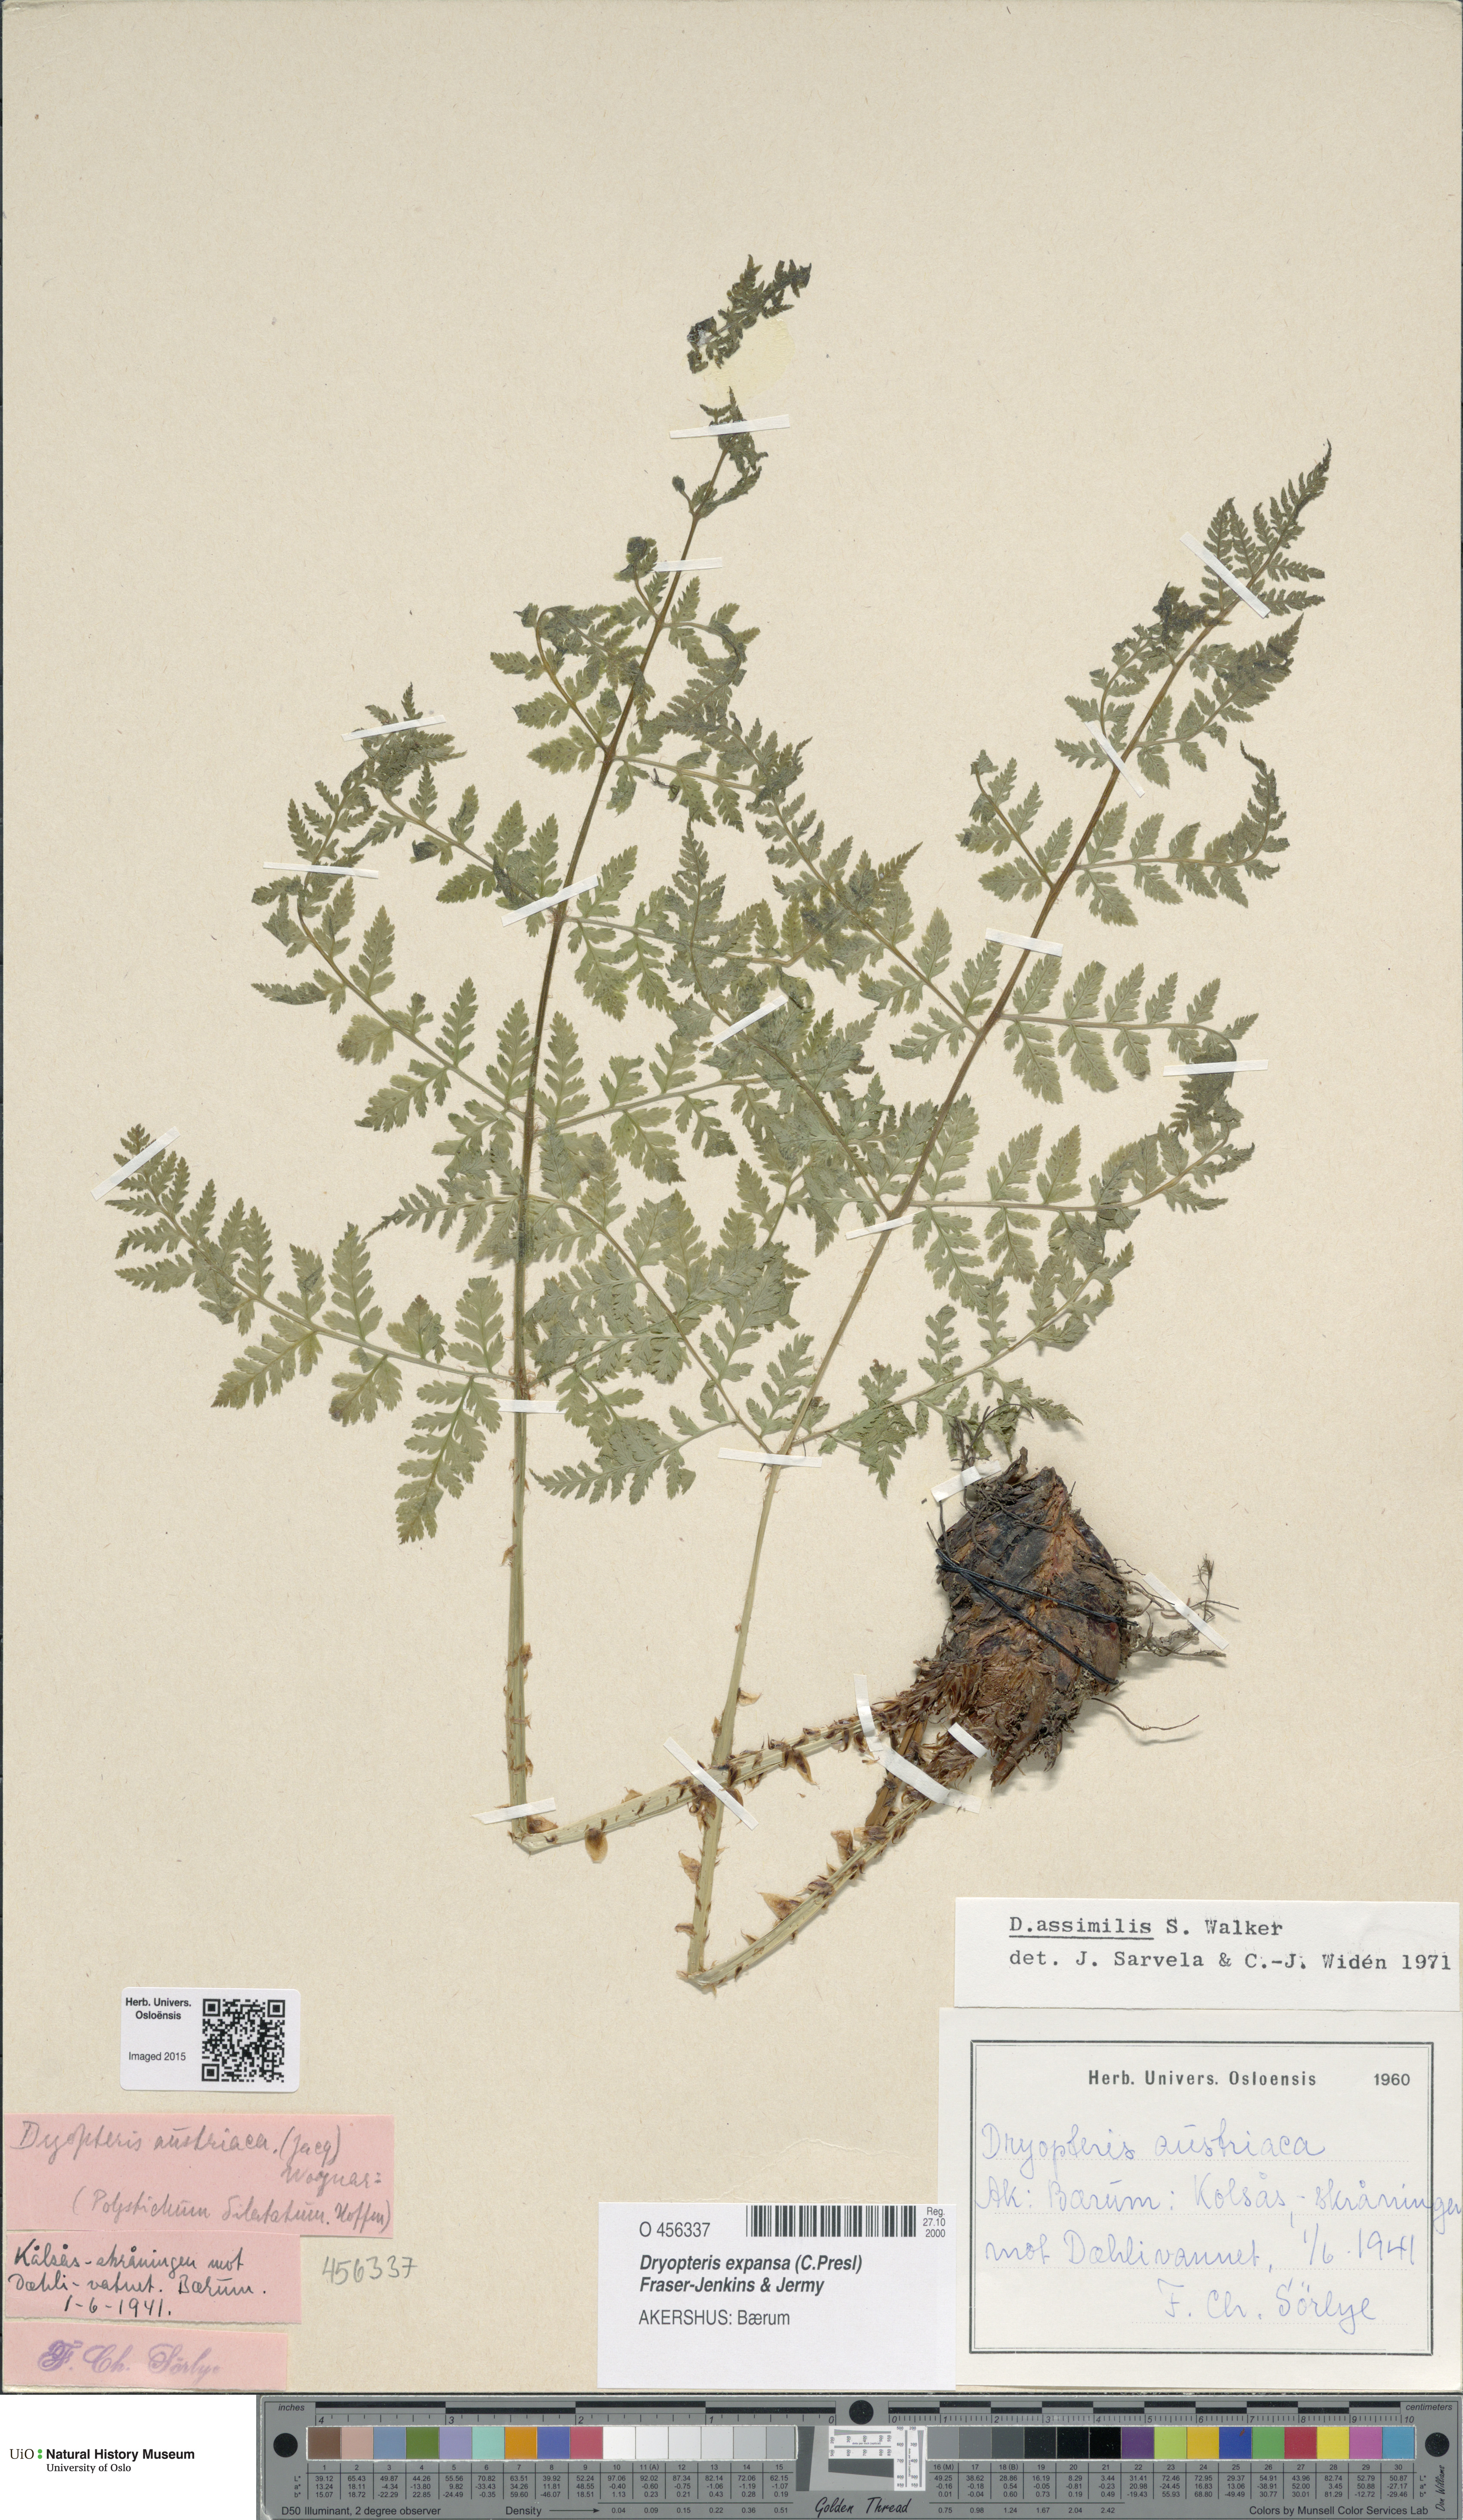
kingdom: Plantae
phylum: Tracheophyta
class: Polypodiopsida
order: Polypodiales
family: Dryopteridaceae
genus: Dryopteris
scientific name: Dryopteris expansa
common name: Northern buckler fern
